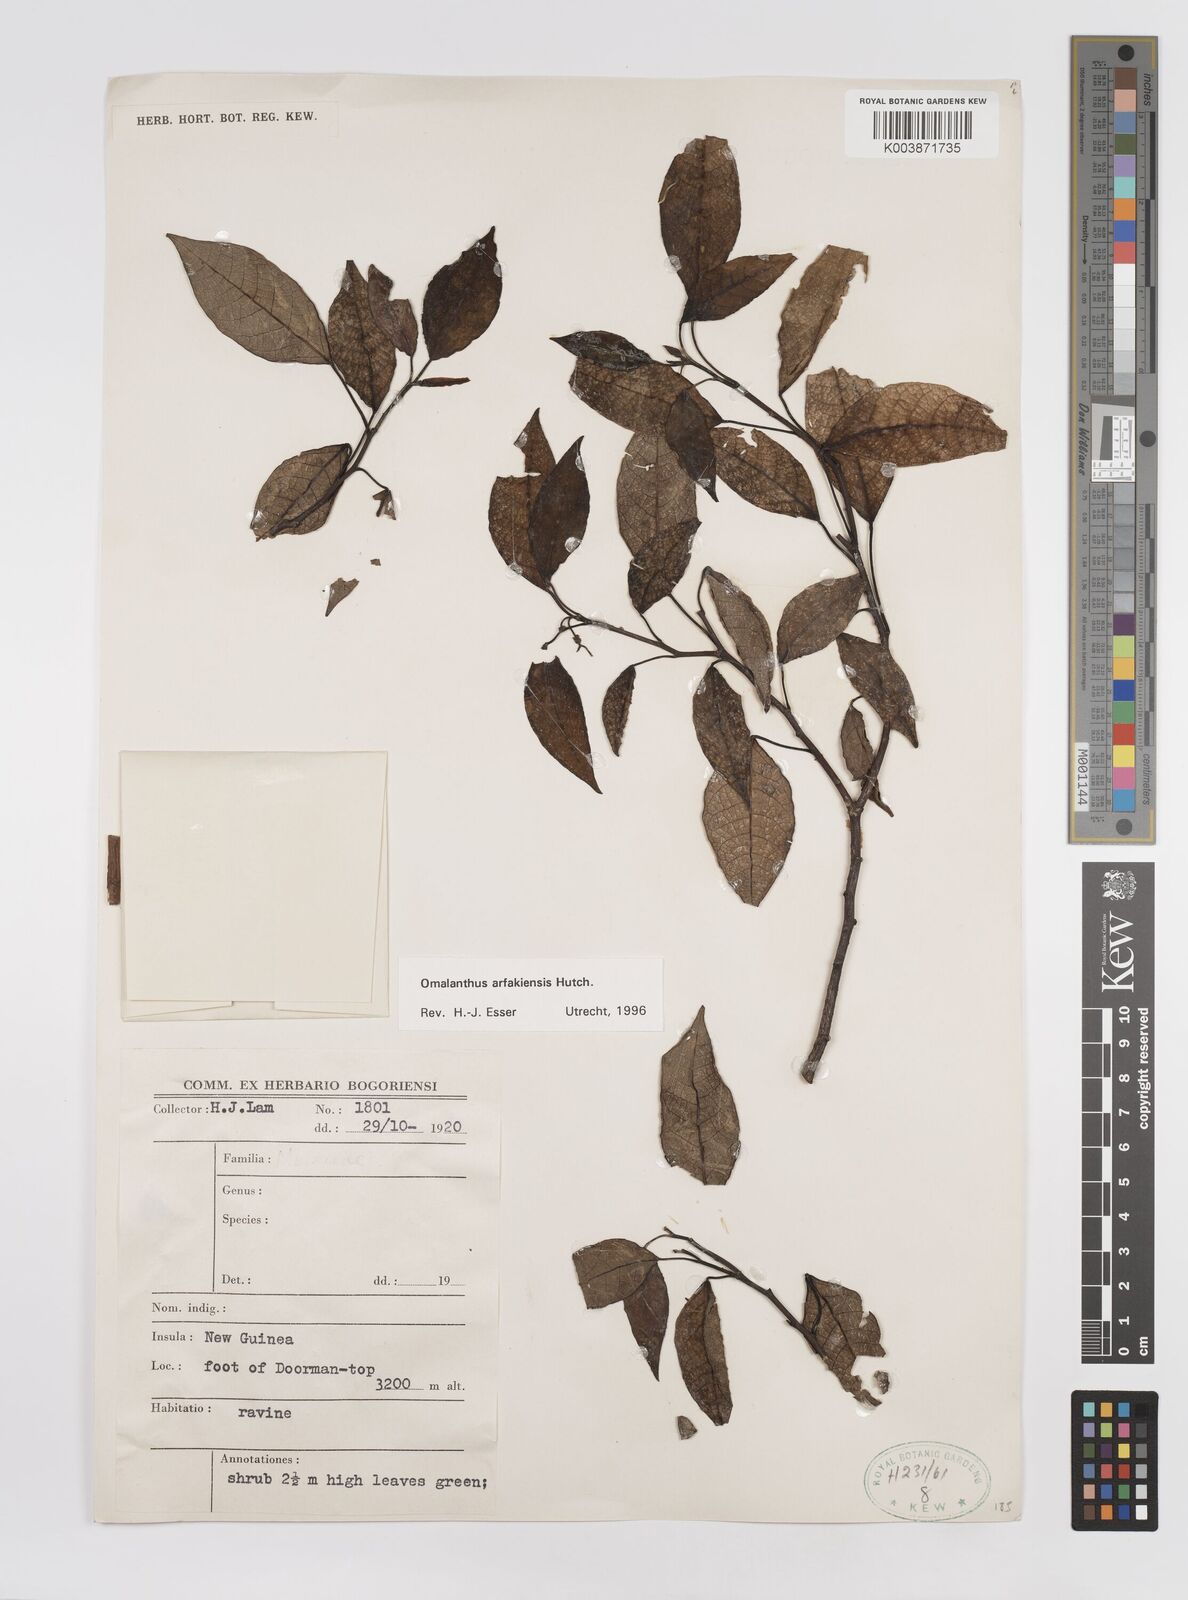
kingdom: Plantae
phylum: Tracheophyta
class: Magnoliopsida
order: Malpighiales
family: Euphorbiaceae
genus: Homalanthus
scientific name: Homalanthus arfakiensis
